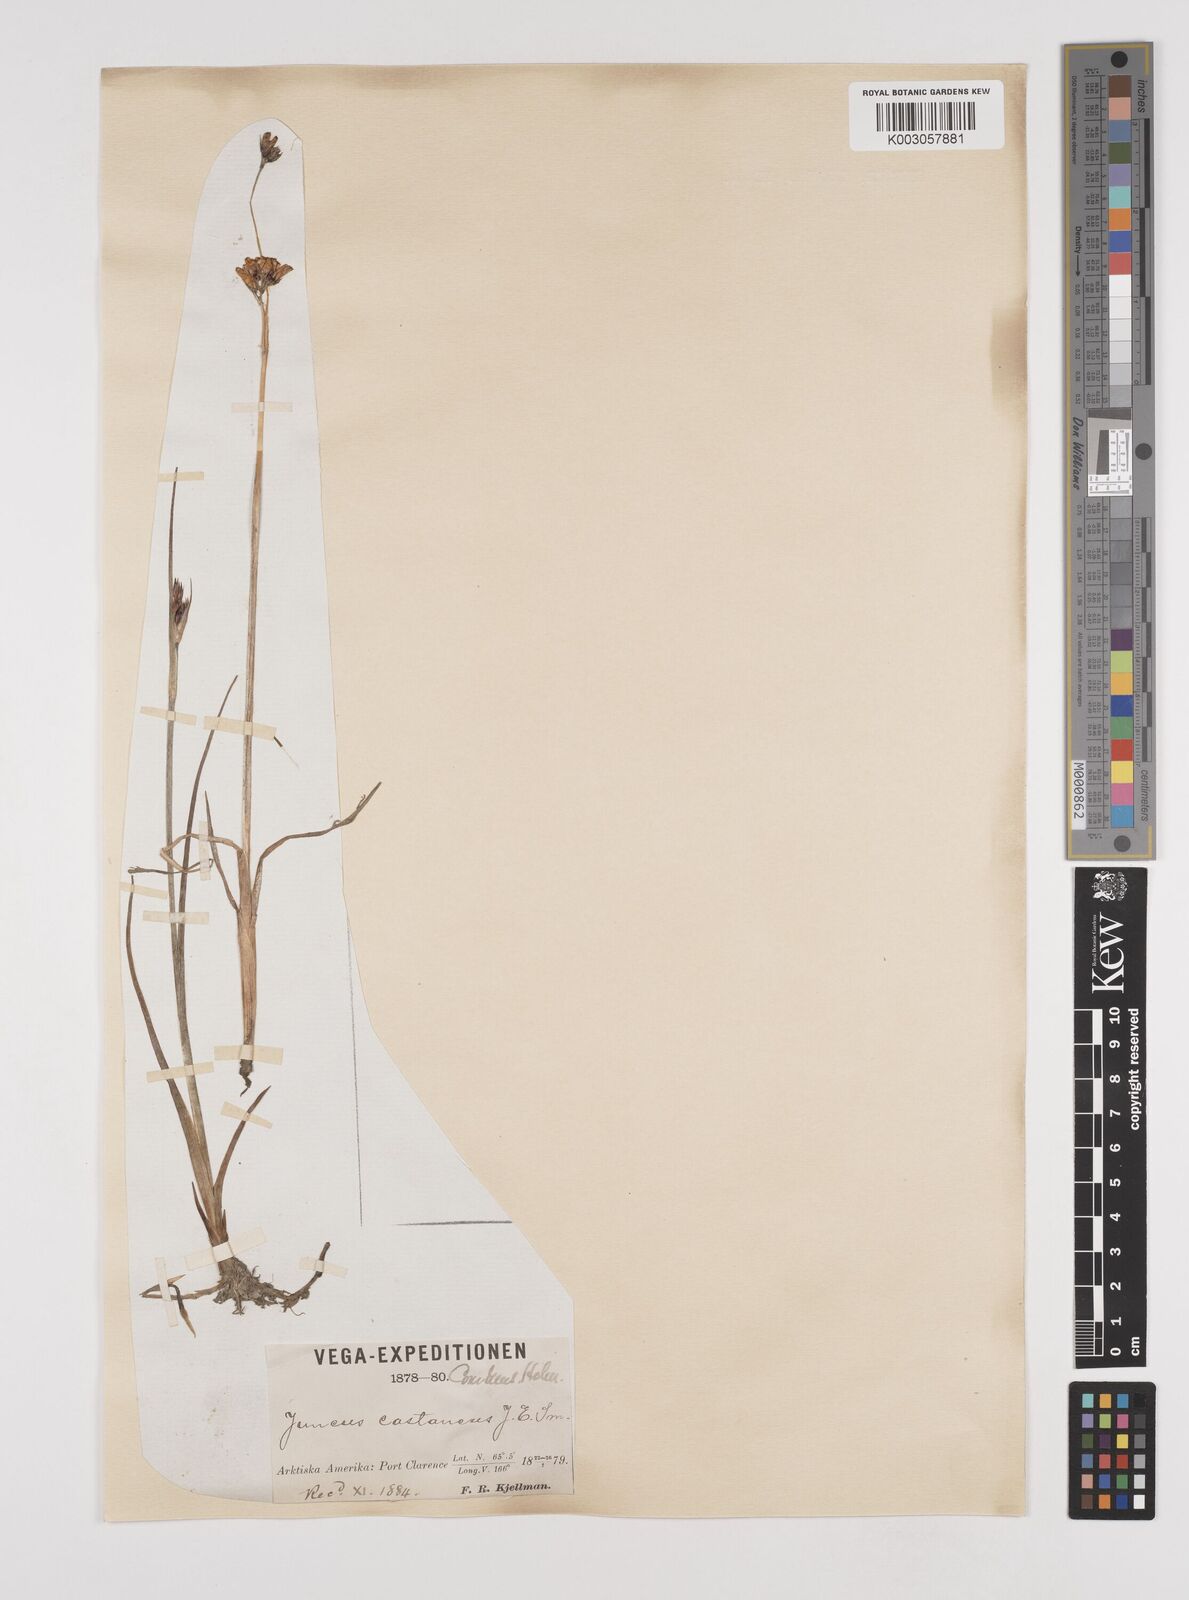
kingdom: Plantae
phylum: Tracheophyta
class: Liliopsida
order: Poales
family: Juncaceae
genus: Juncus
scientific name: Juncus castaneus
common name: Chestnut rush
